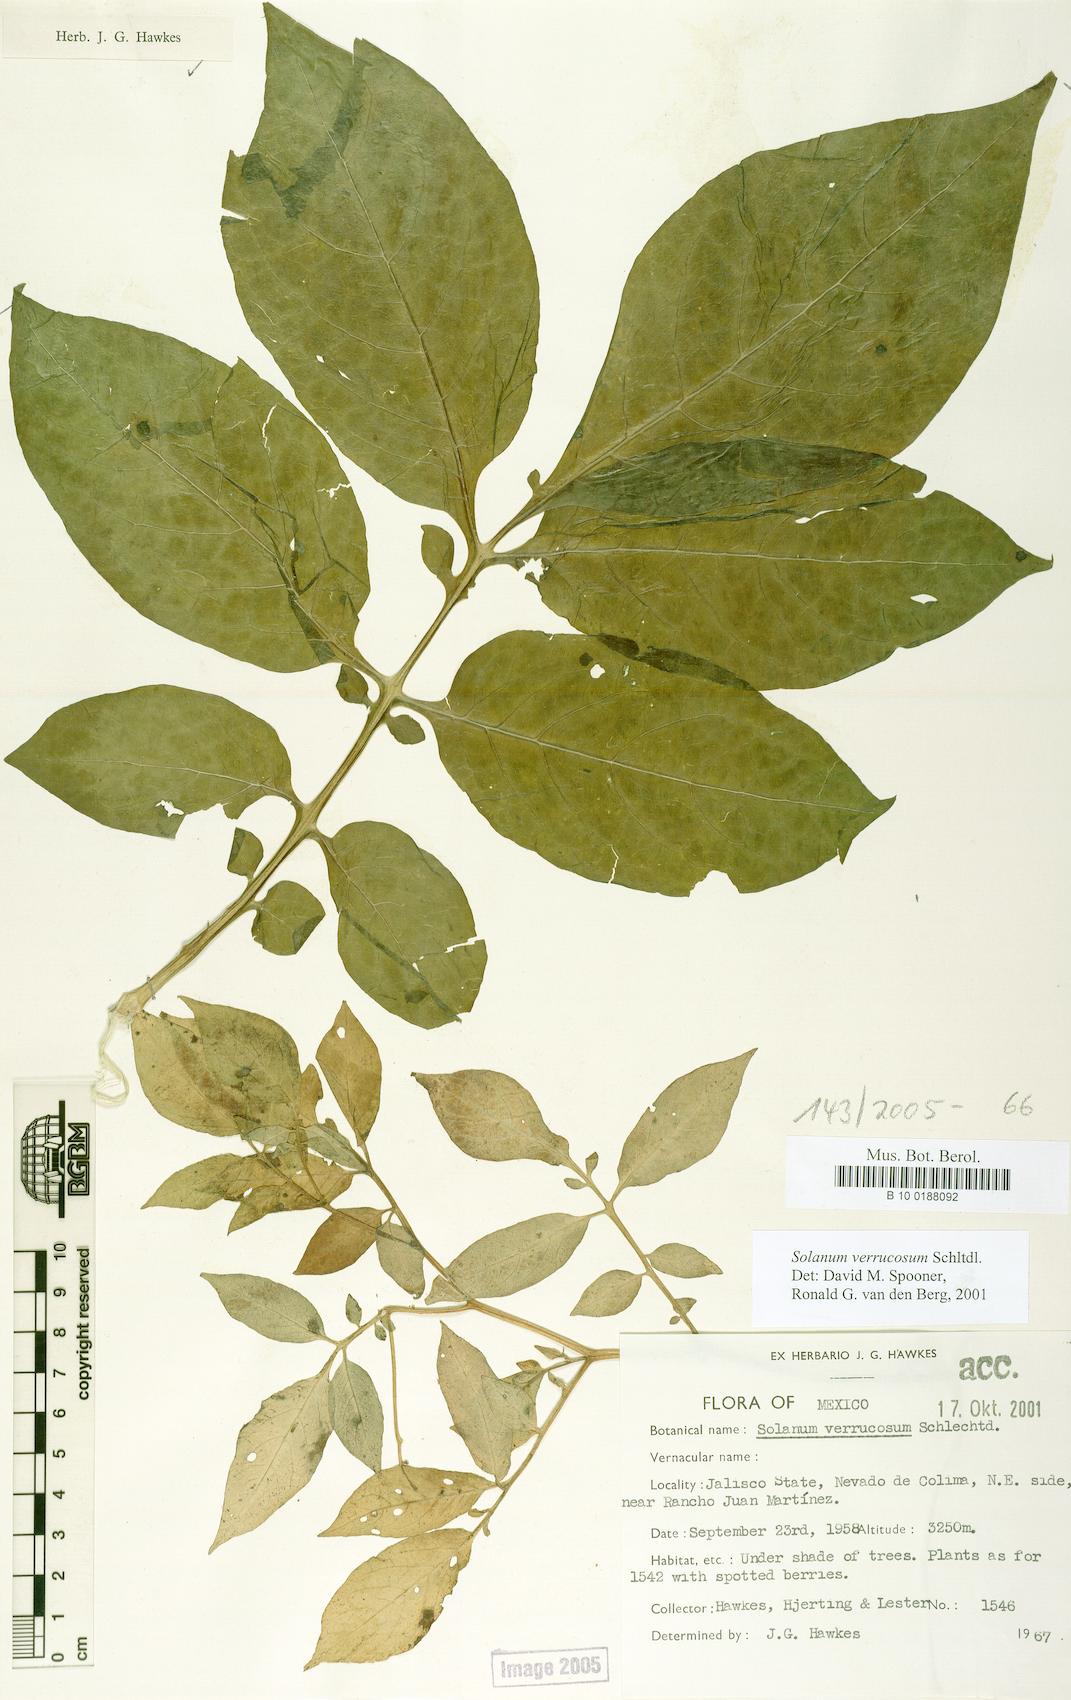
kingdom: Plantae
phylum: Tracheophyta
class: Magnoliopsida
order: Solanales
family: Solanaceae
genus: Solanum
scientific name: Solanum verrucosum
